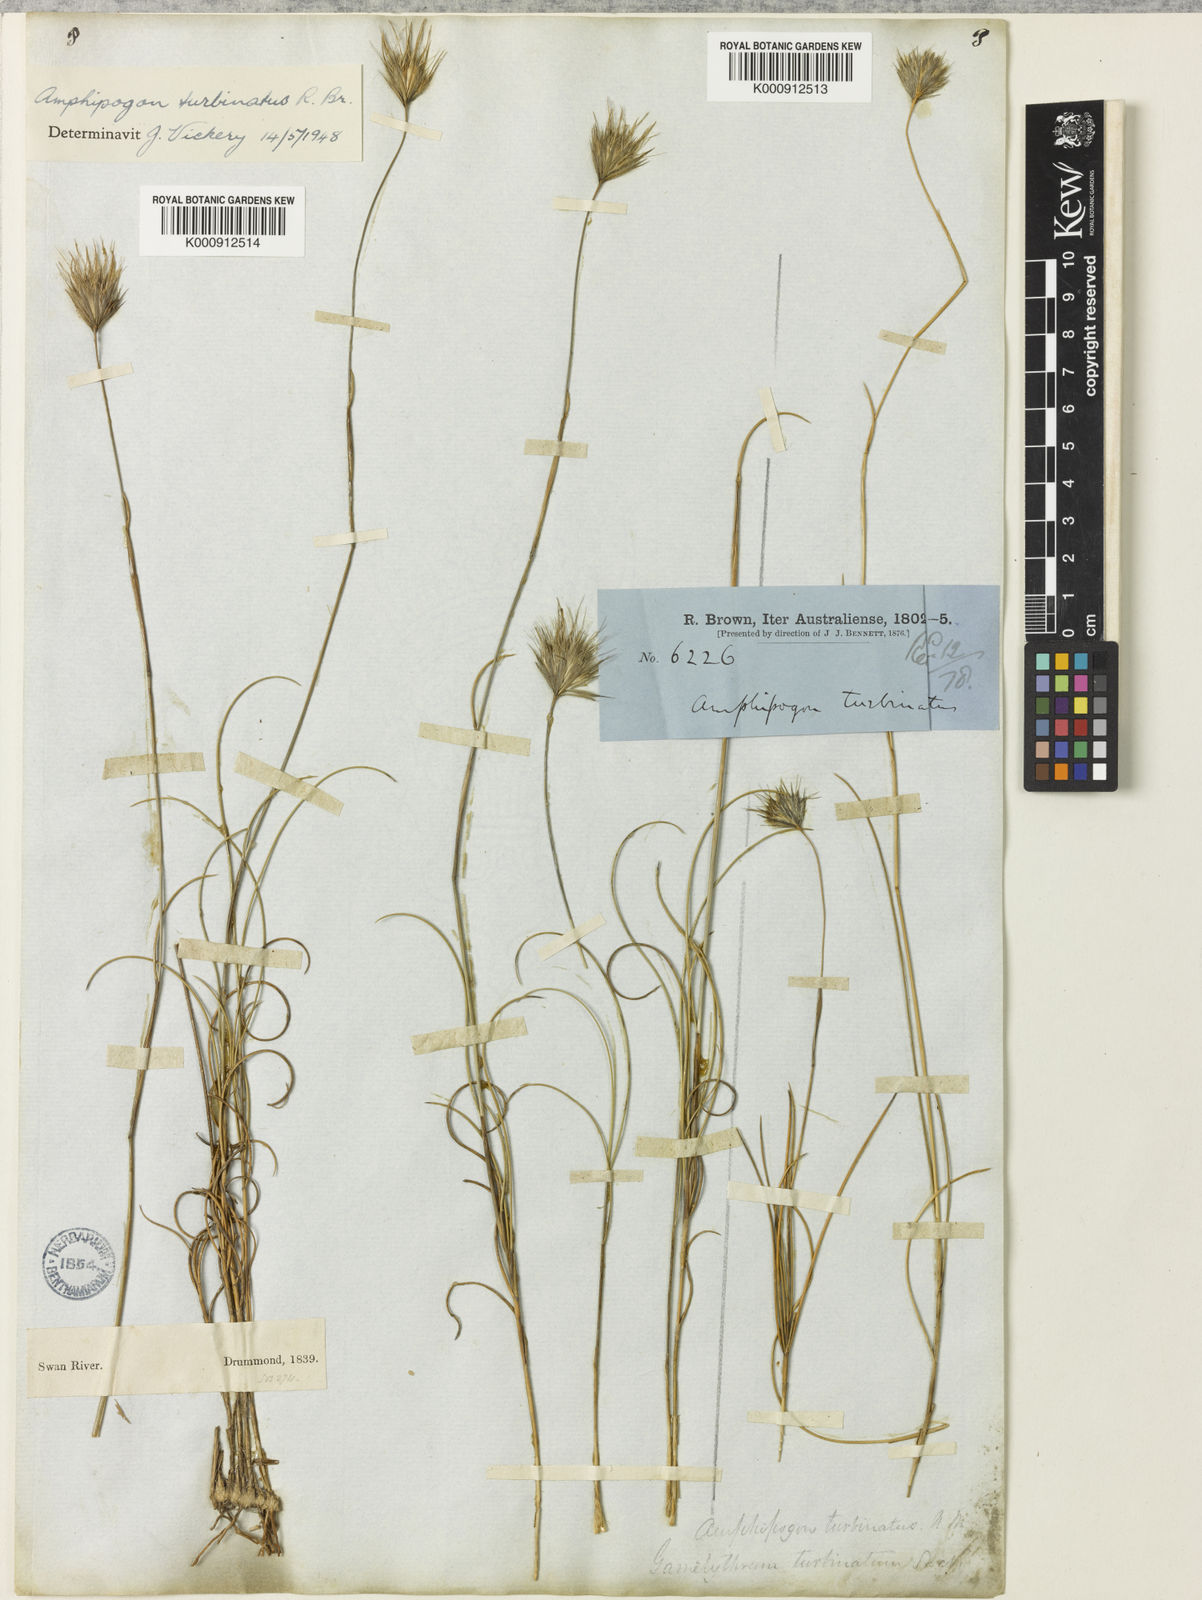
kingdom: Plantae
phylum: Tracheophyta
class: Liliopsida
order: Poales
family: Poaceae
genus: Amphipogon
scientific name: Amphipogon turbinatus
